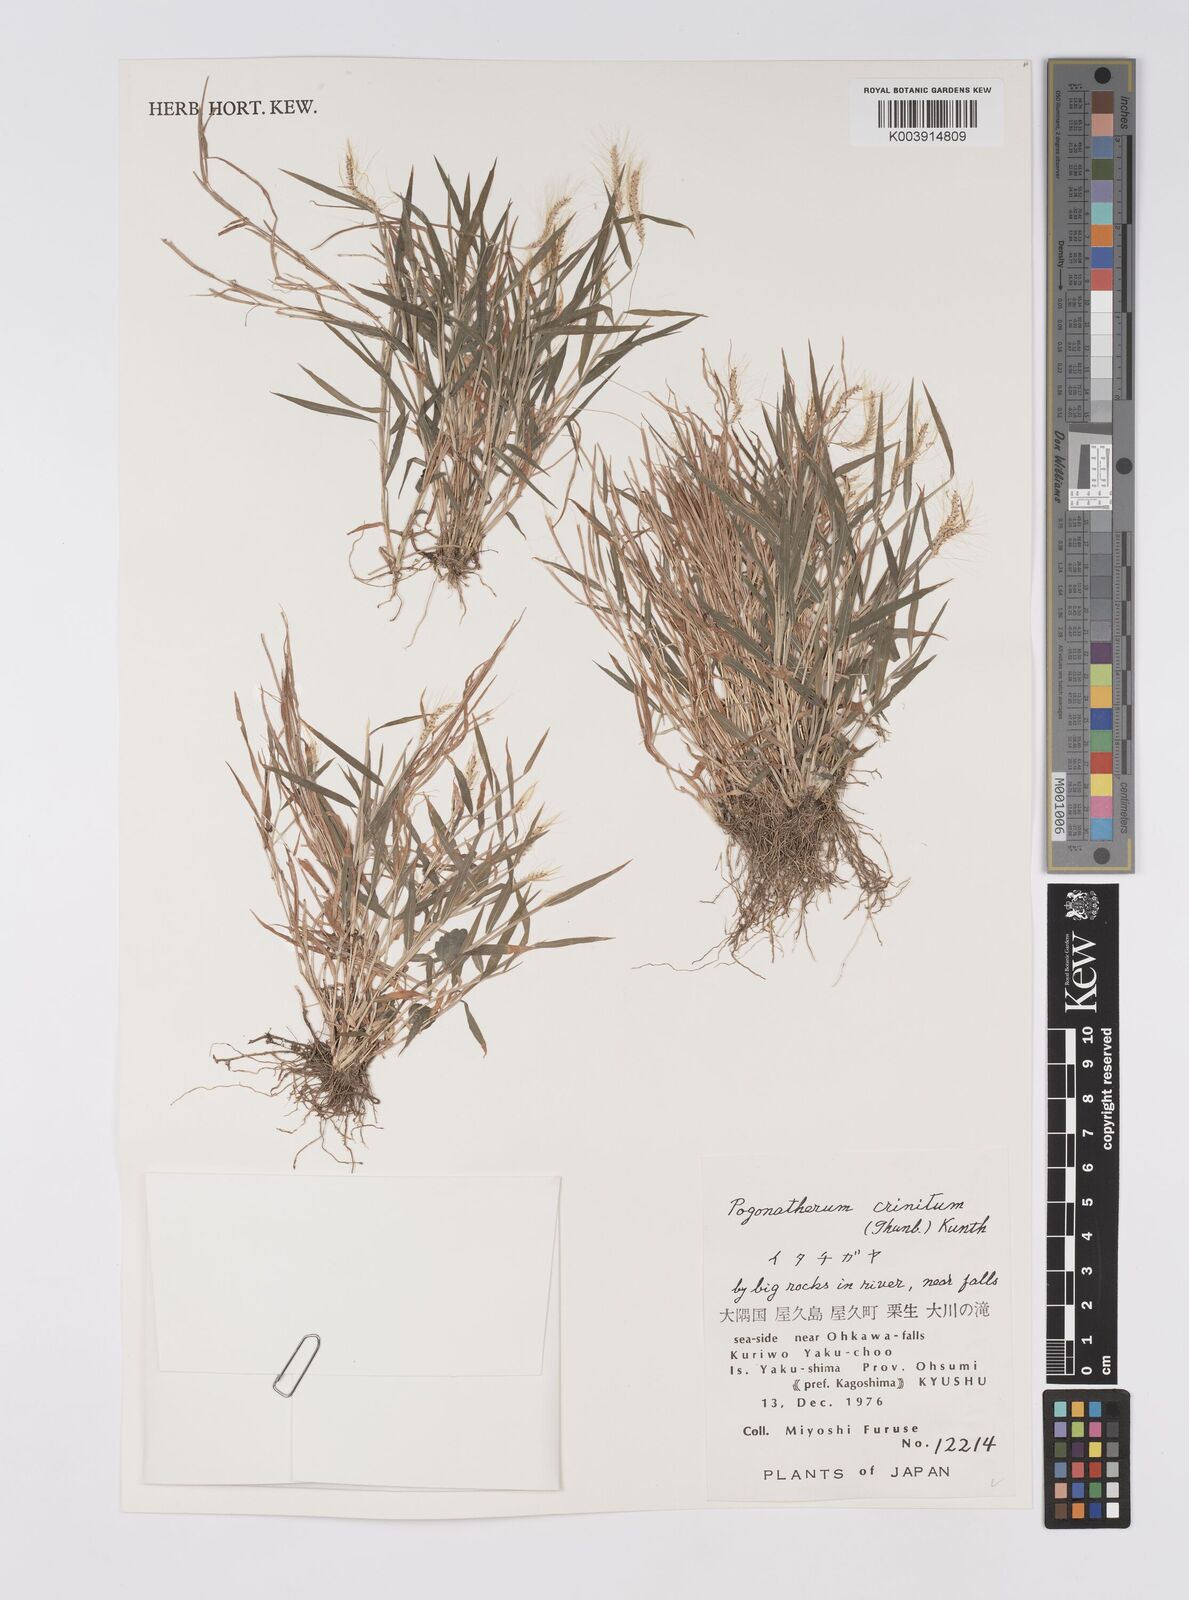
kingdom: Plantae
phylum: Tracheophyta
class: Liliopsida
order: Poales
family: Poaceae
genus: Pogonatherum
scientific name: Pogonatherum crinitum
